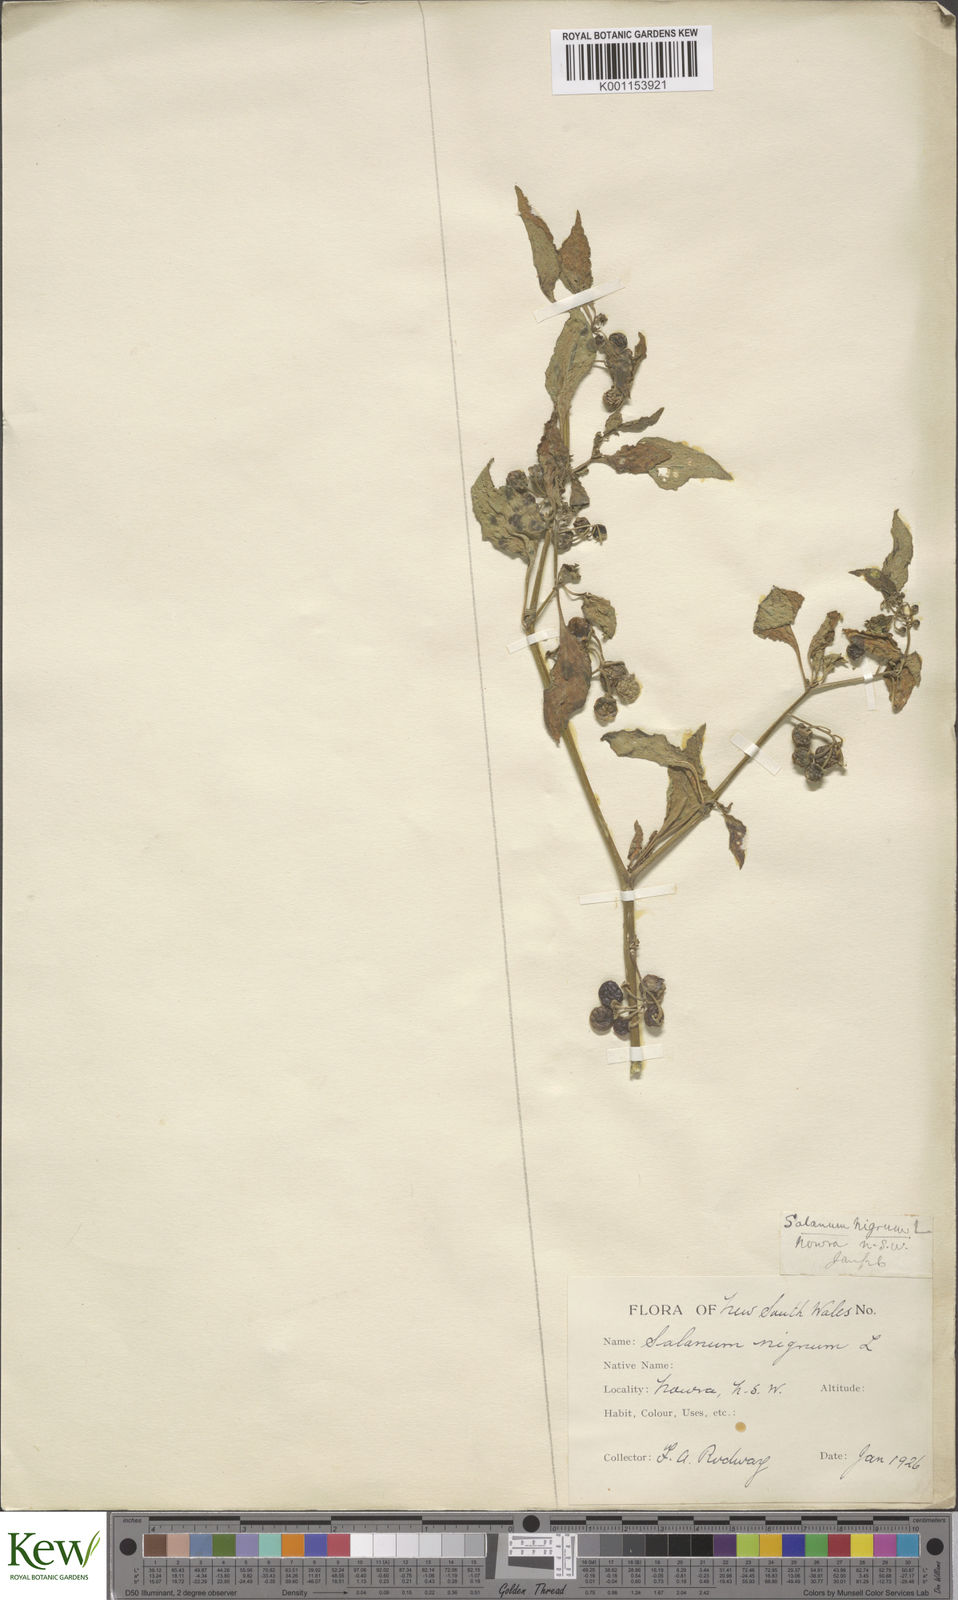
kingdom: Plantae
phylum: Tracheophyta
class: Magnoliopsida
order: Solanales
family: Solanaceae
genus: Solanum
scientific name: Solanum nigrum
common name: Black nightshade
